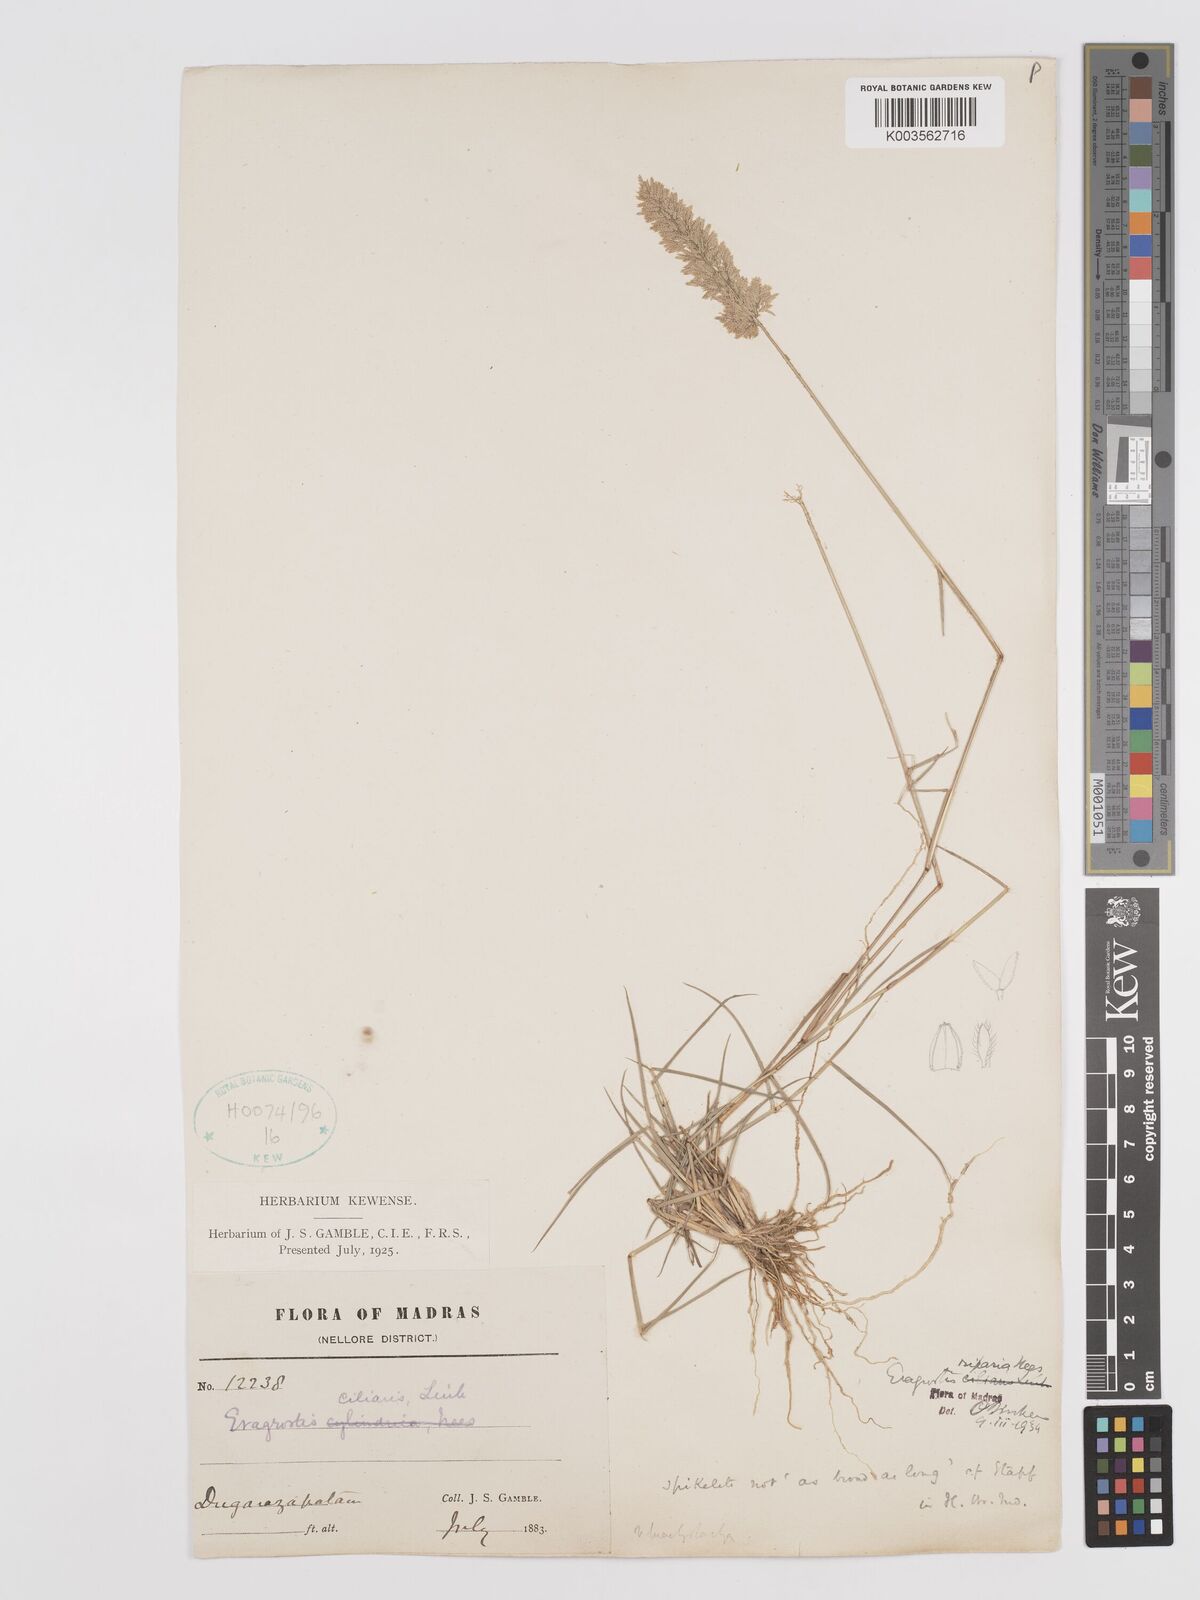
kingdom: Plantae
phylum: Tracheophyta
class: Liliopsida
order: Poales
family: Poaceae
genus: Eragrostis
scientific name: Eragrostis riparia
